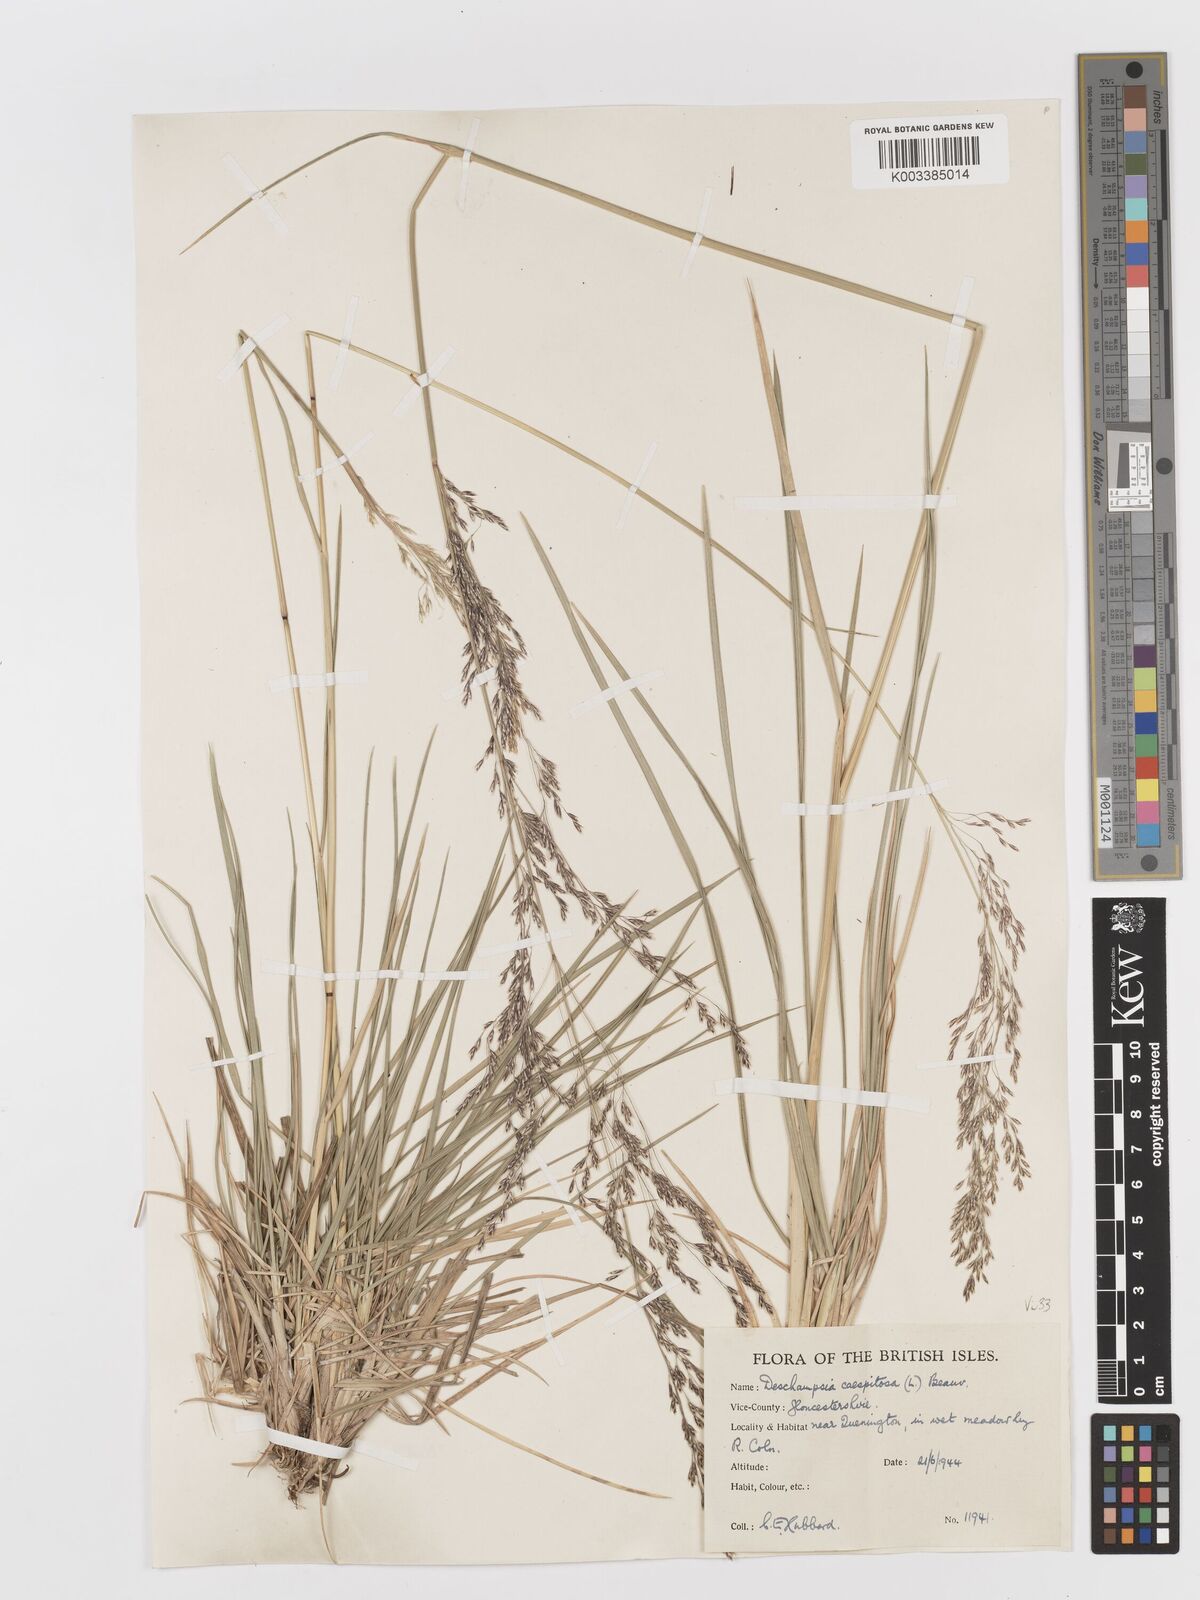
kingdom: Plantae
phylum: Tracheophyta
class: Liliopsida
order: Poales
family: Poaceae
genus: Deschampsia
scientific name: Deschampsia cespitosa
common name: Tufted hair-grass
